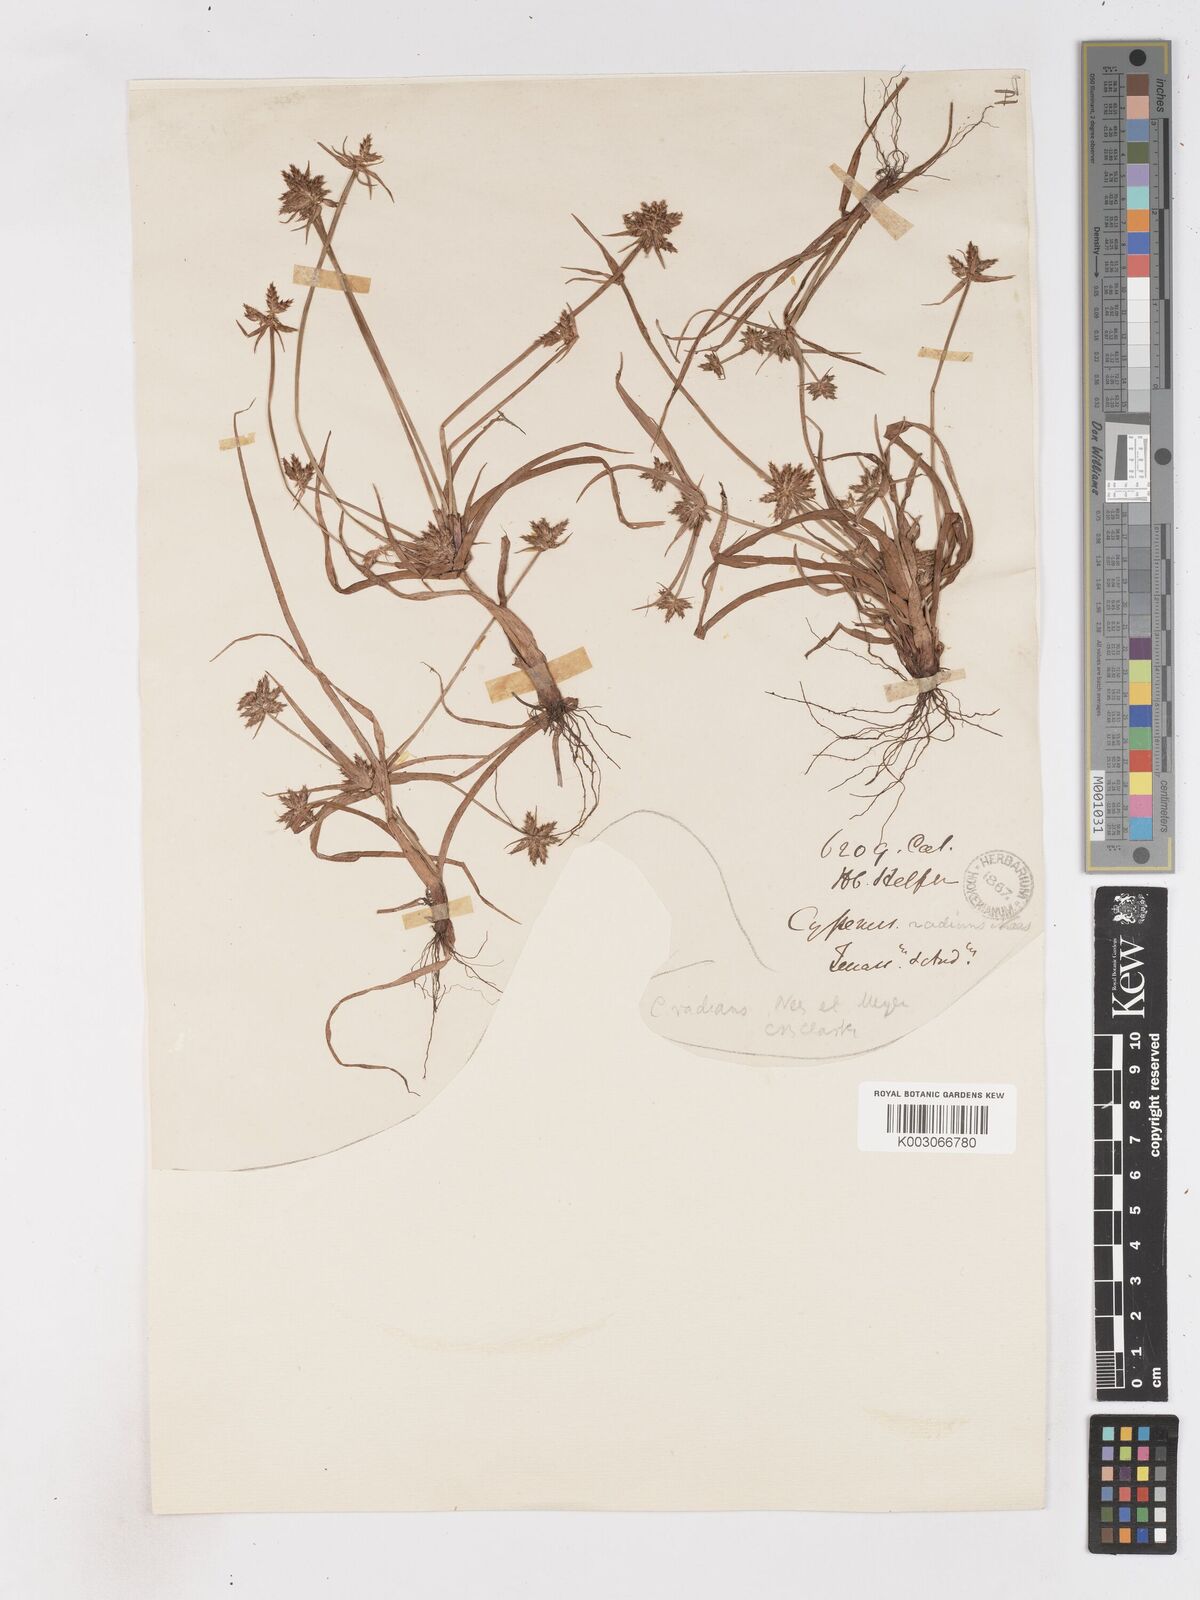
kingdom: Plantae
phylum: Tracheophyta
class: Liliopsida
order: Poales
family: Cyperaceae
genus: Cyperus
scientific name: Cyperus
